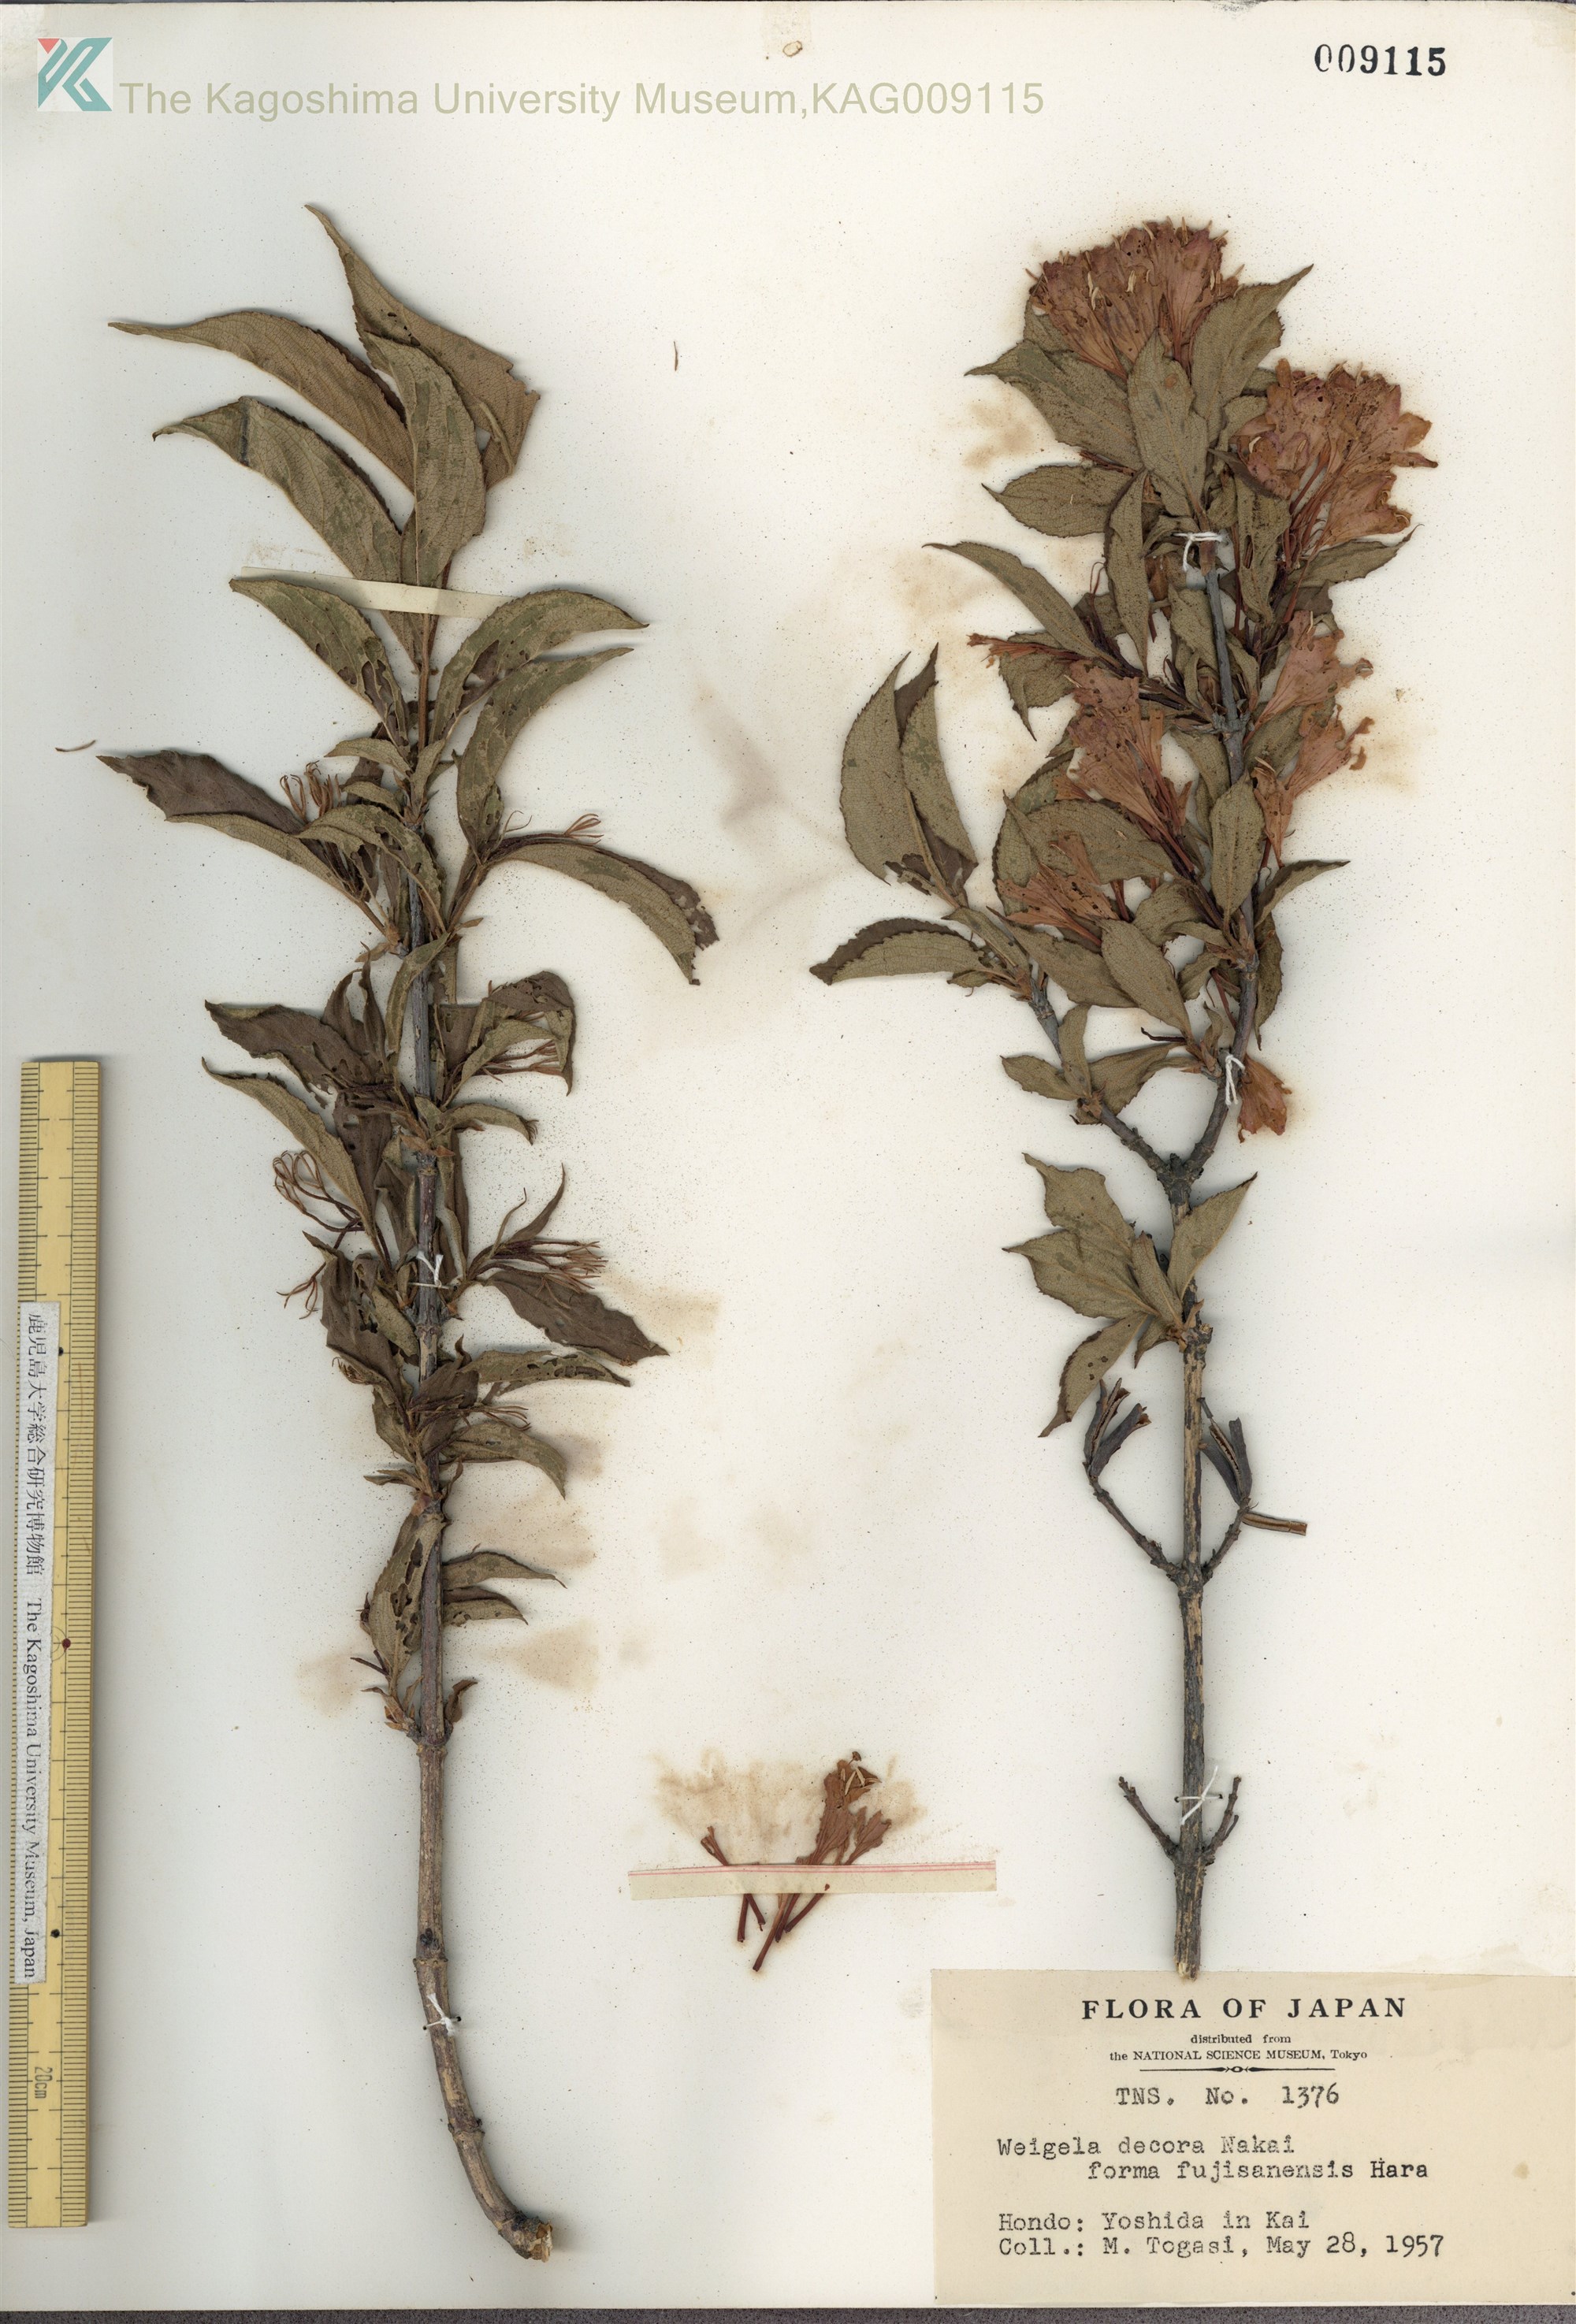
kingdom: Plantae
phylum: Tracheophyta
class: Magnoliopsida
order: Dipsacales
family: Caprifoliaceae
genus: Weigela
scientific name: Weigela decora
